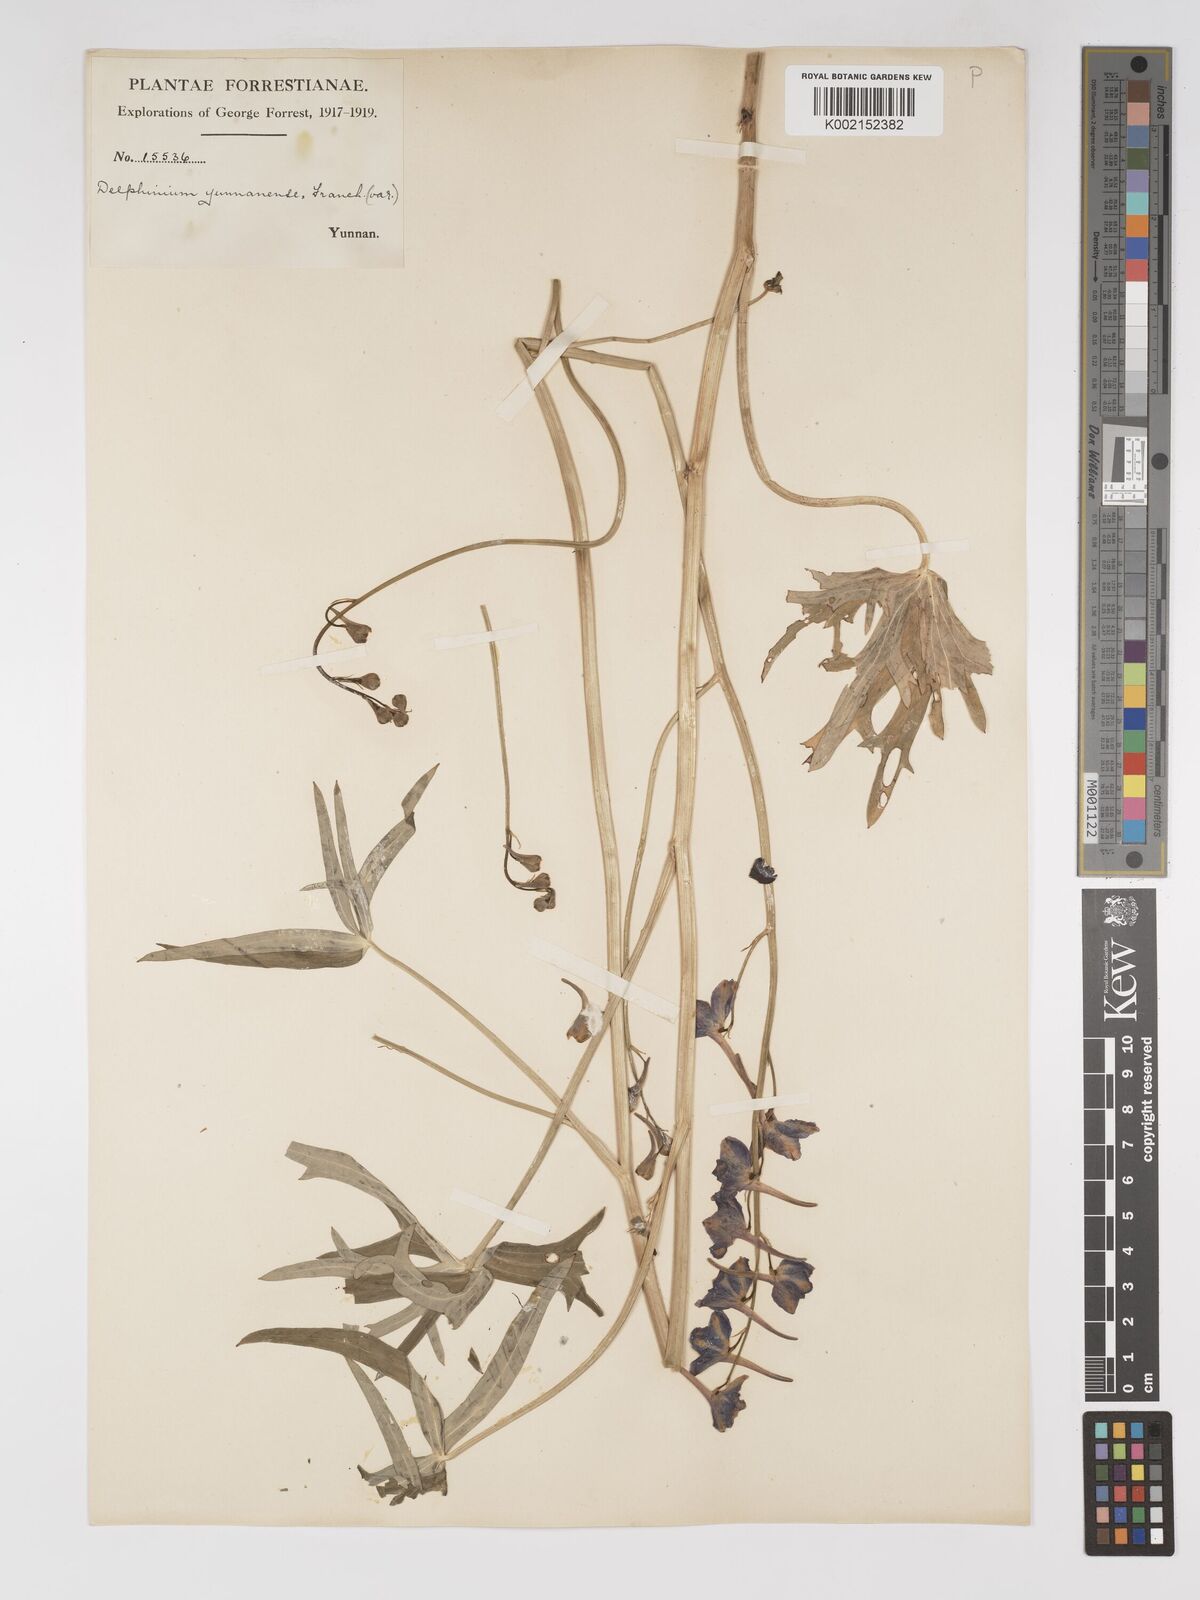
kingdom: Plantae
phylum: Tracheophyta
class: Magnoliopsida
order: Ranunculales
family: Ranunculaceae
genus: Delphinium
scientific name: Delphinium yunnanense
